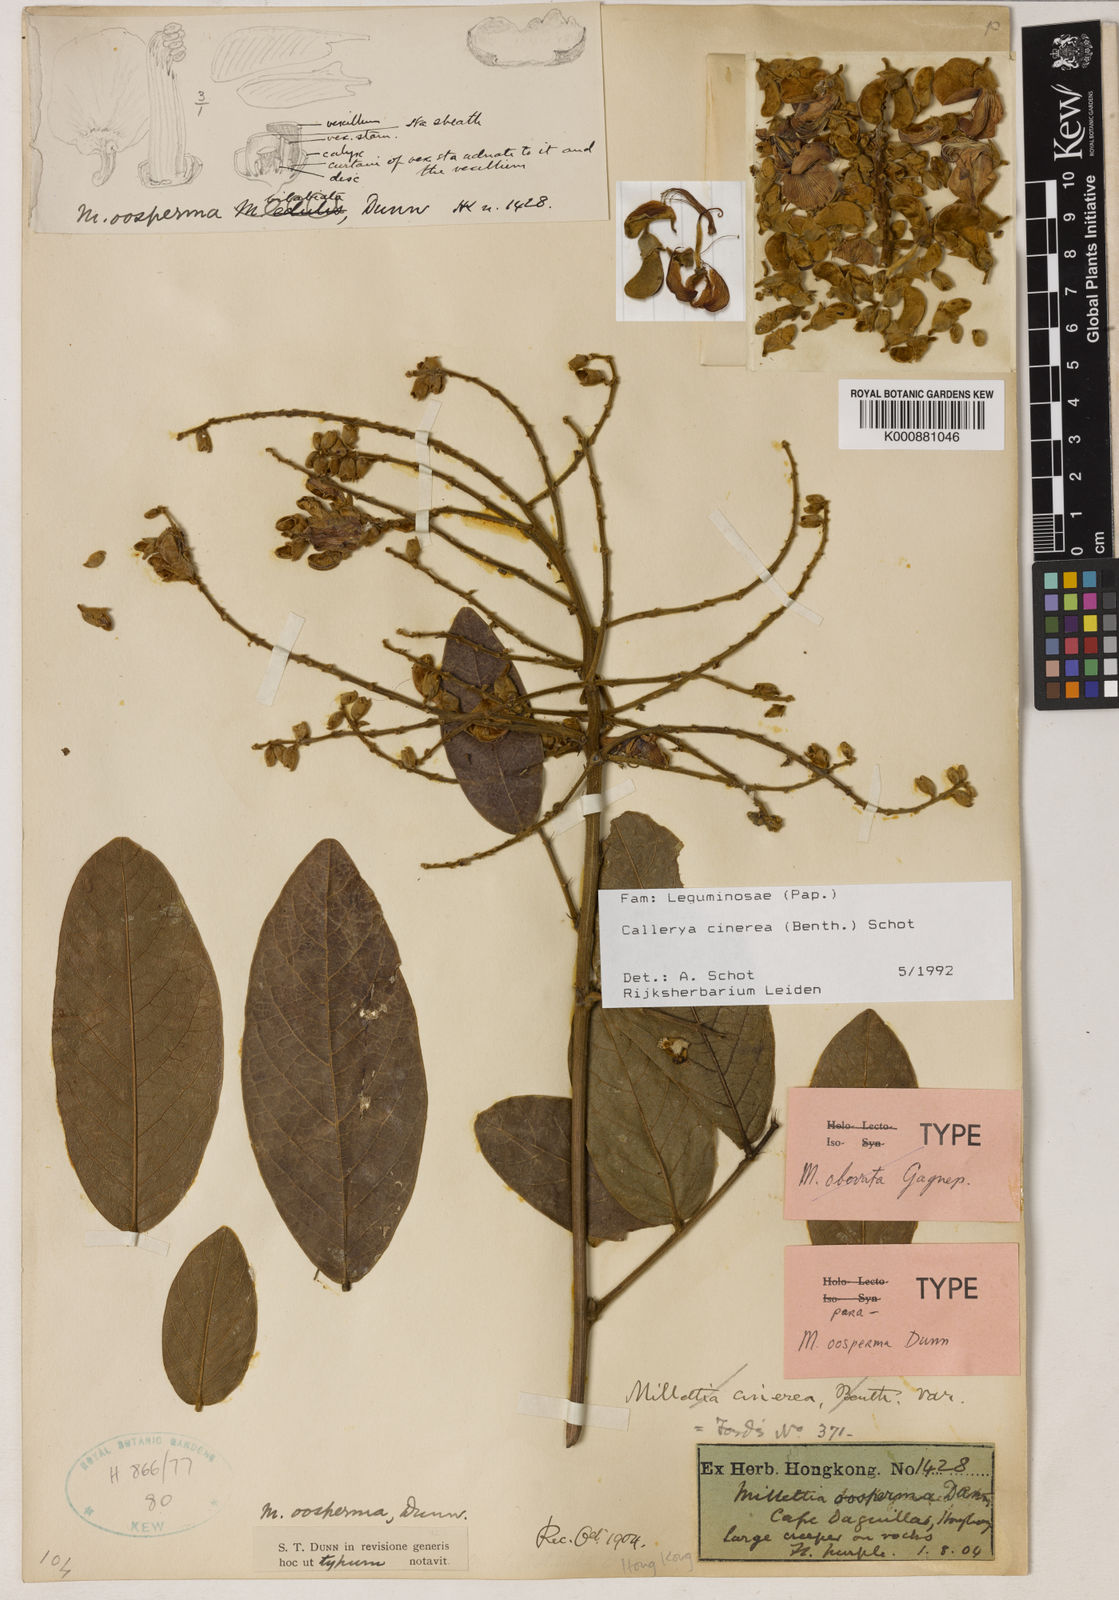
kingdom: Plantae
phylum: Tracheophyta
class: Magnoliopsida
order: Fabales
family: Fabaceae
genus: Callerya
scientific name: Callerya cinerea
